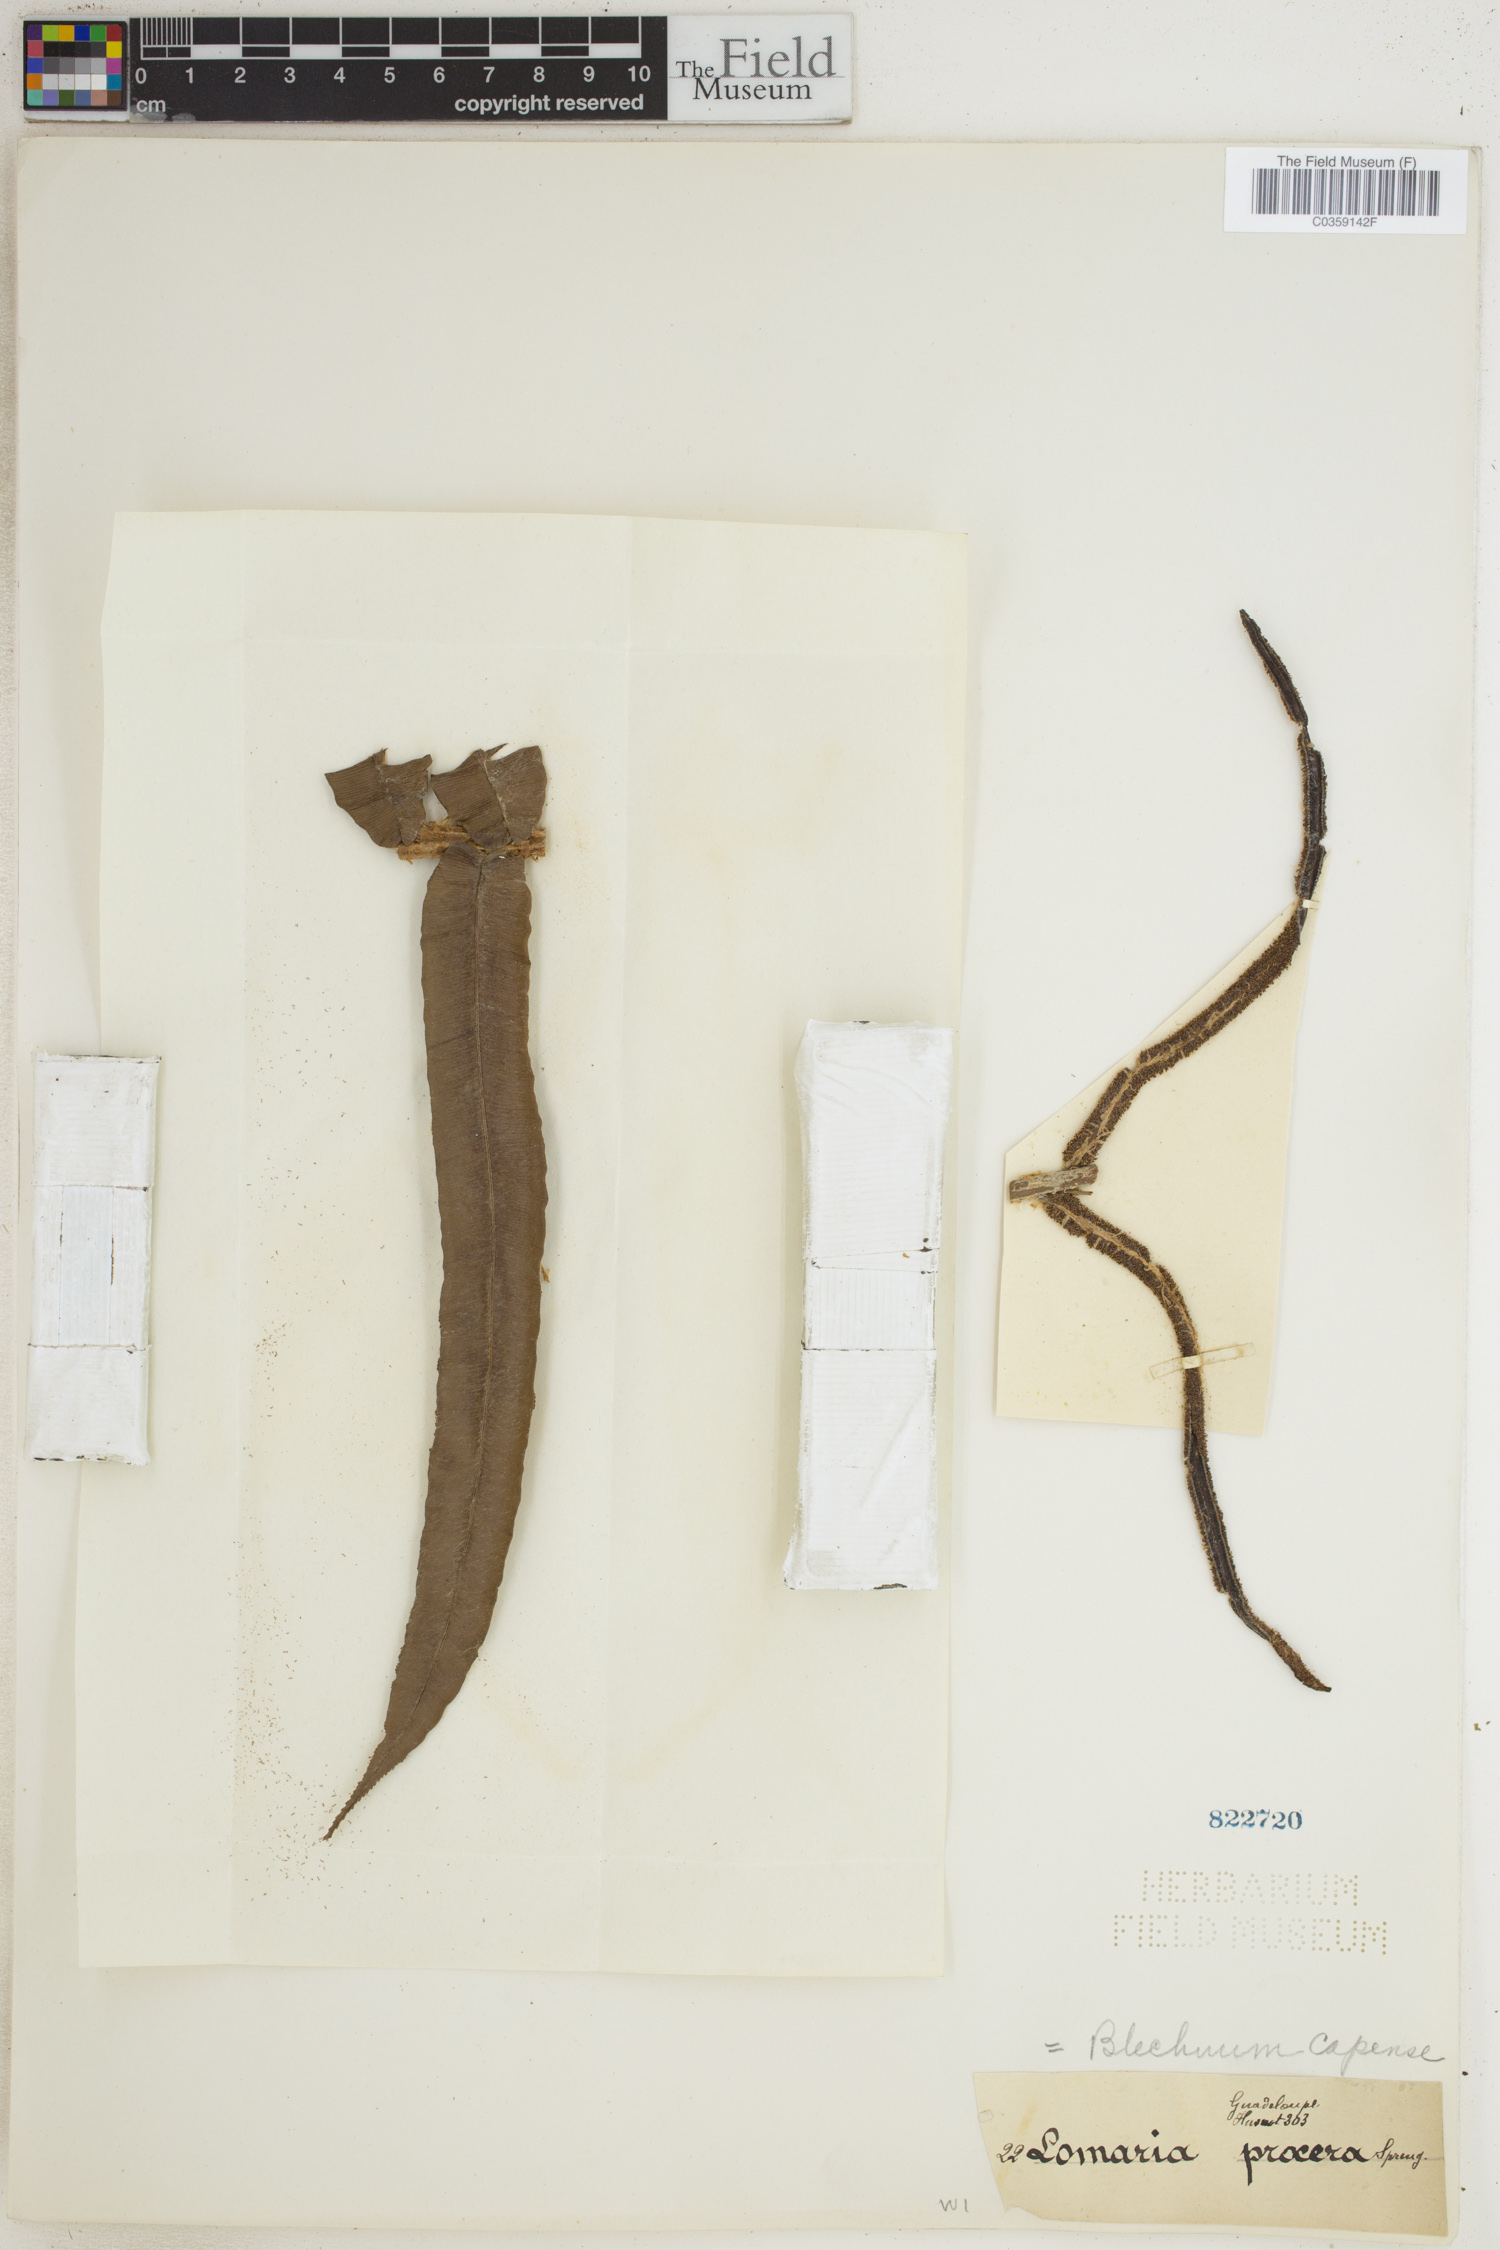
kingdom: Plantae
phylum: Tracheophyta
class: Polypodiopsida
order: Polypodiales
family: Blechnaceae
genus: Parablechnum
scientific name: Parablechnum capense
